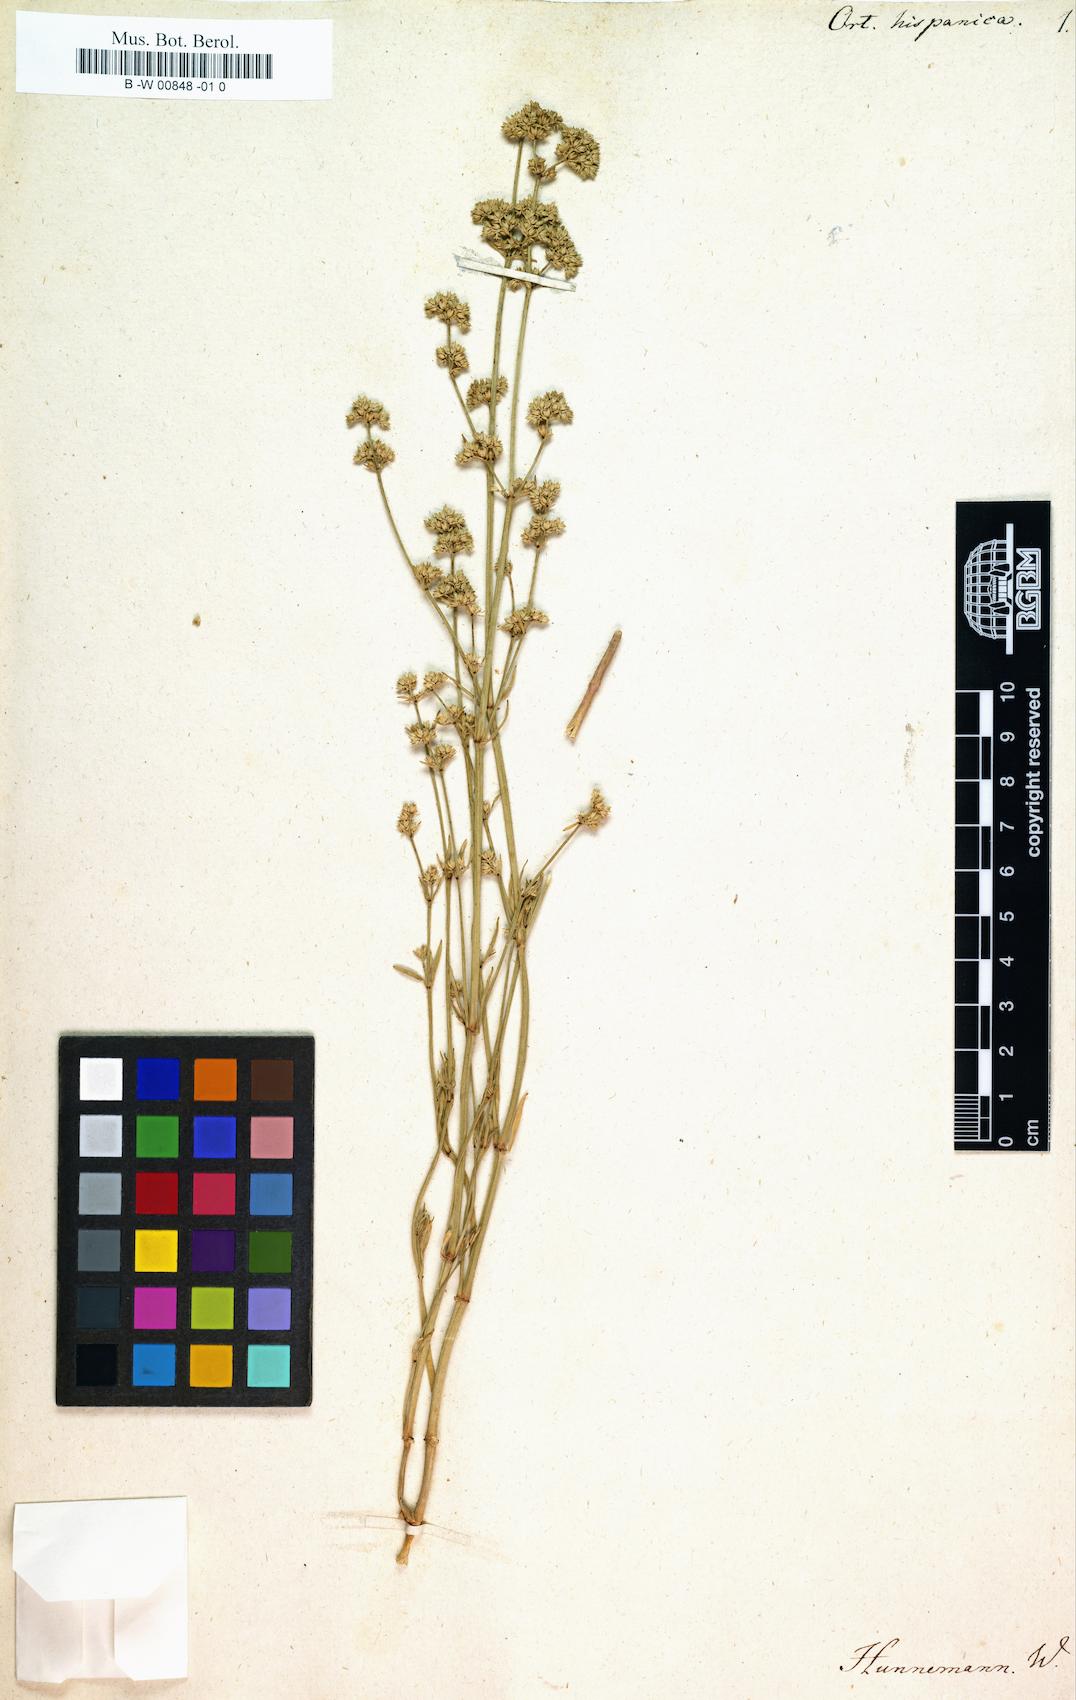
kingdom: Plantae
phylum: Tracheophyta
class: Magnoliopsida
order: Caryophyllales
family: Caryophyllaceae
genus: Ortegia
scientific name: Ortegia hispanica
